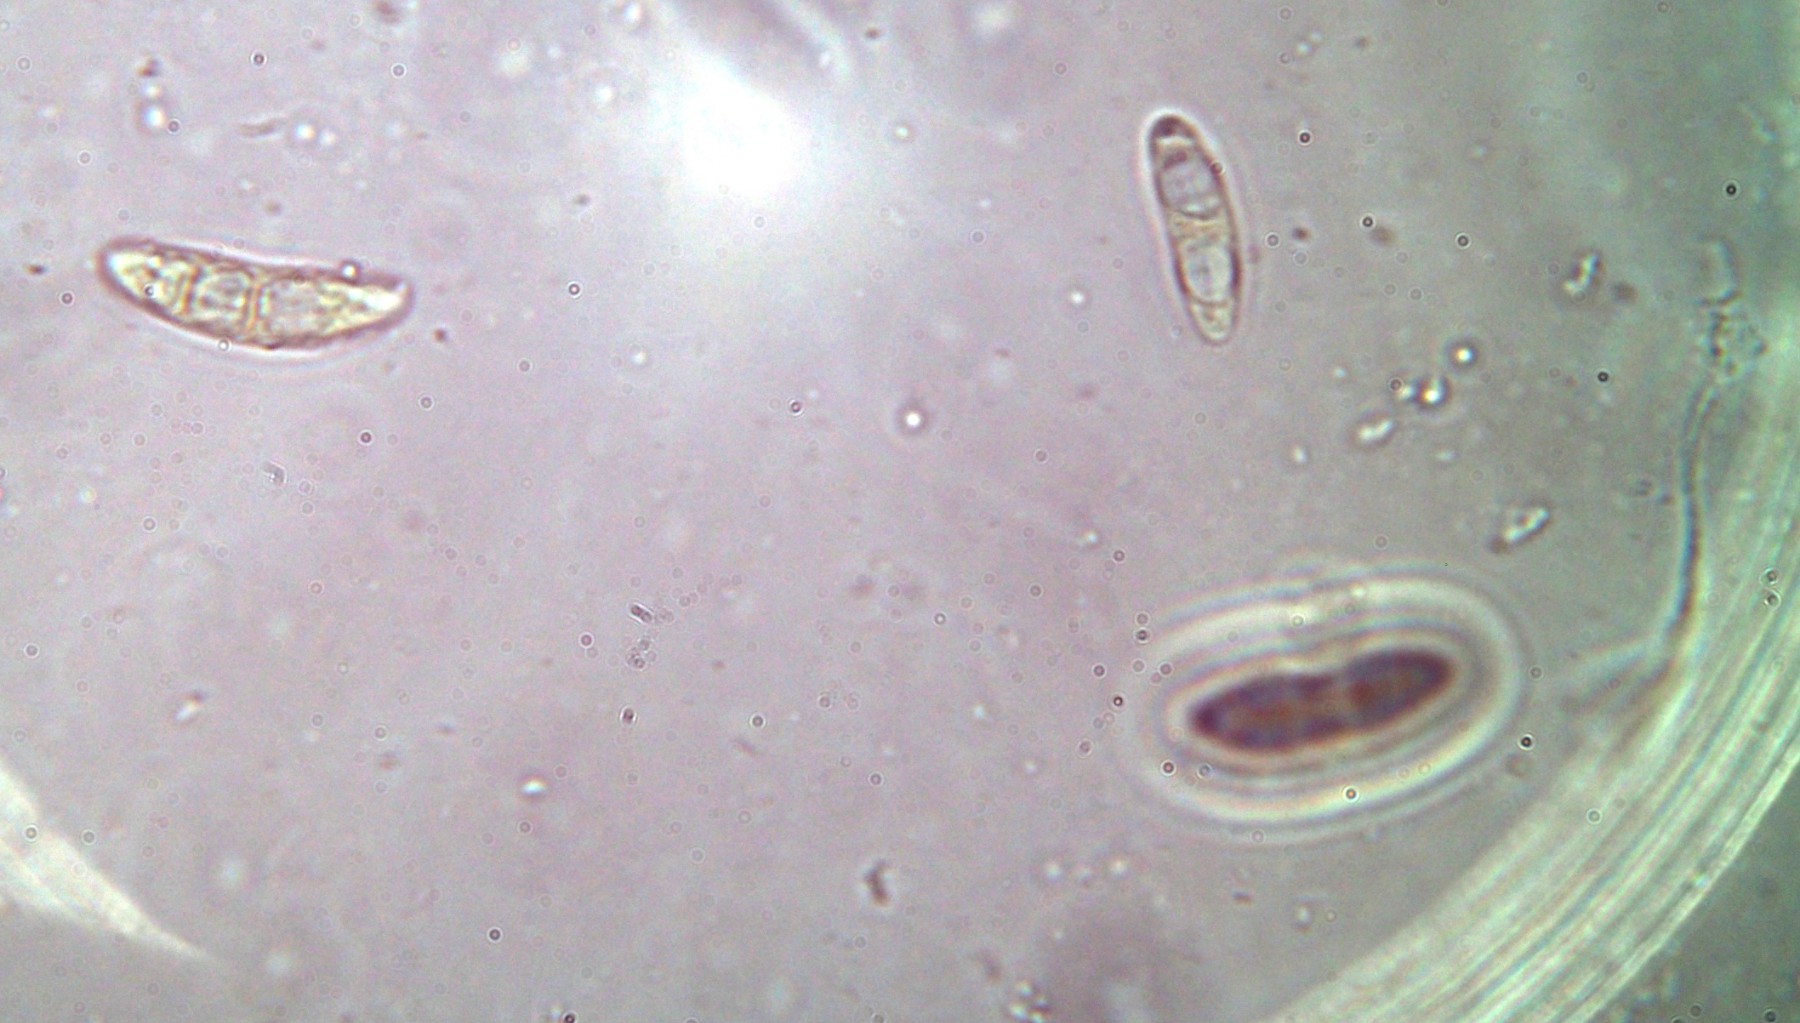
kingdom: Fungi
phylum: Ascomycota
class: Leotiomycetes
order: Helotiales
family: Helotiaceae
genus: Cyathicula
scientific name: Cyathicula subliciformis
